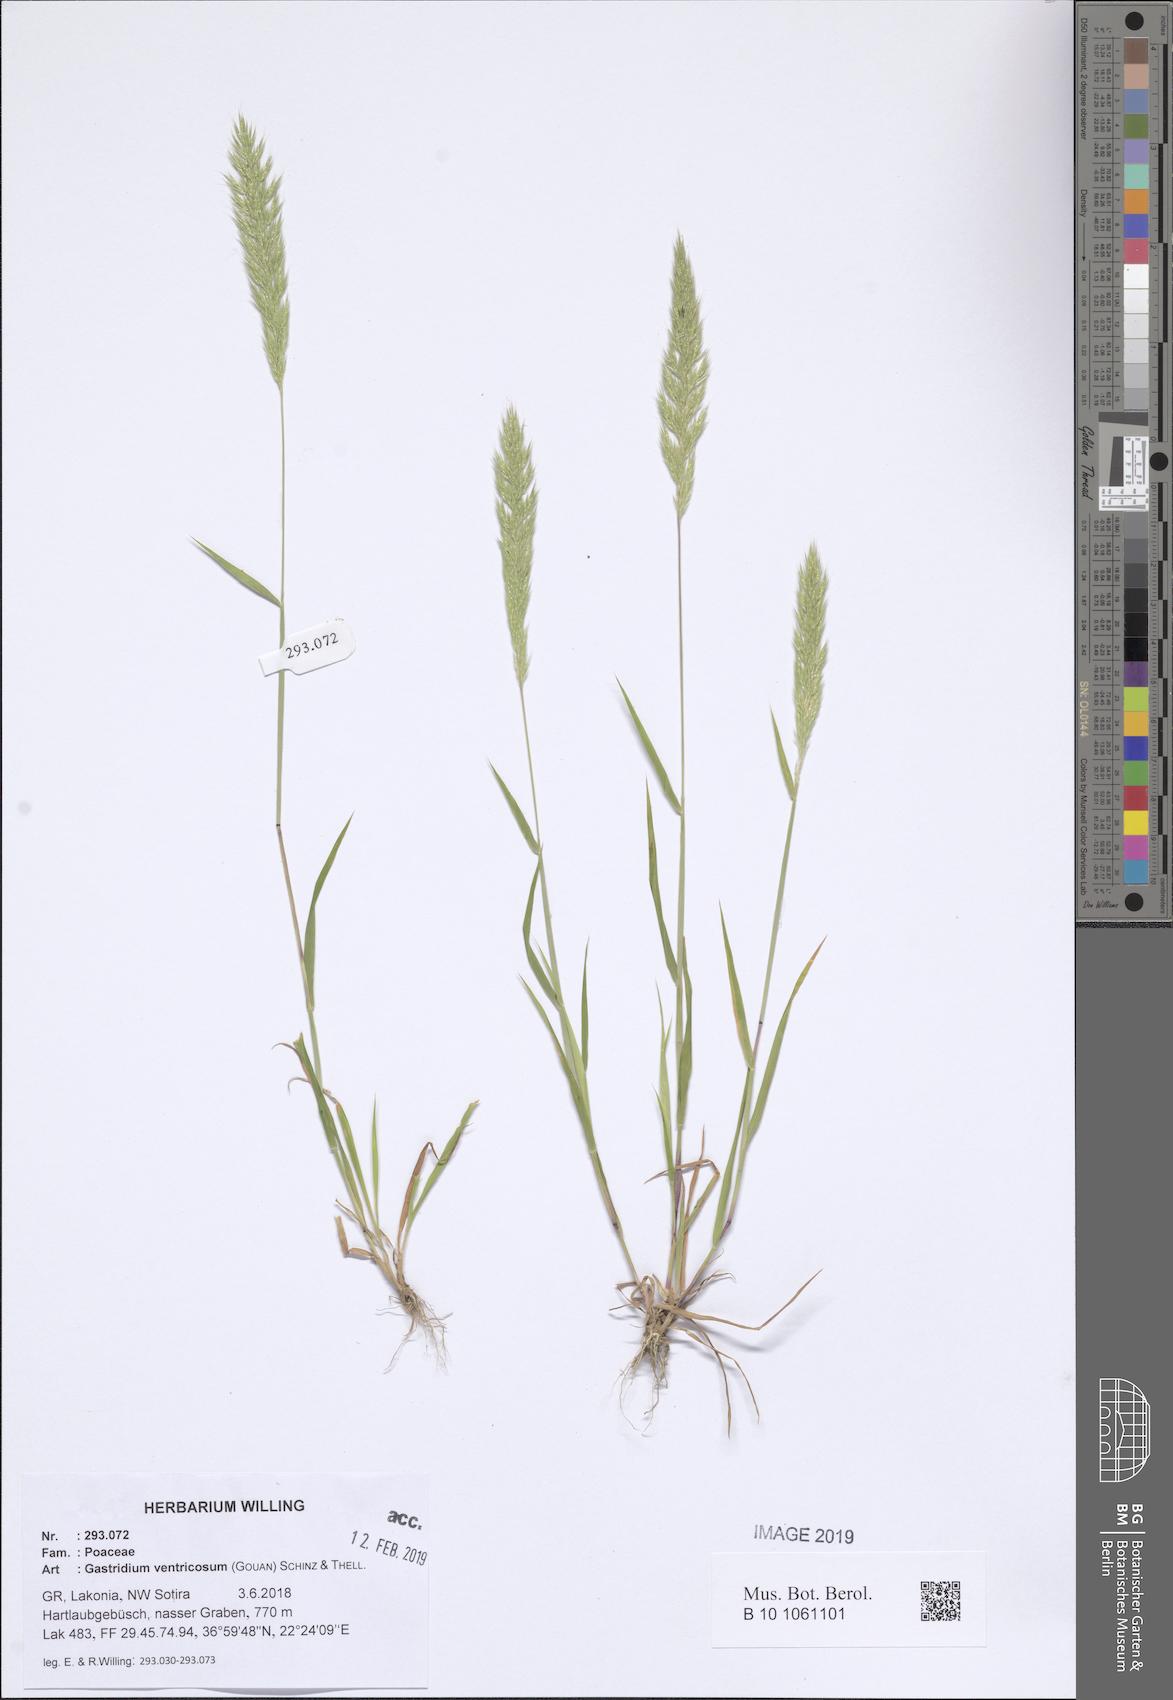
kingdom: Plantae
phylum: Tracheophyta
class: Liliopsida
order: Poales
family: Poaceae
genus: Gastridium
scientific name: Gastridium ventricosum
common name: Nit-grass
